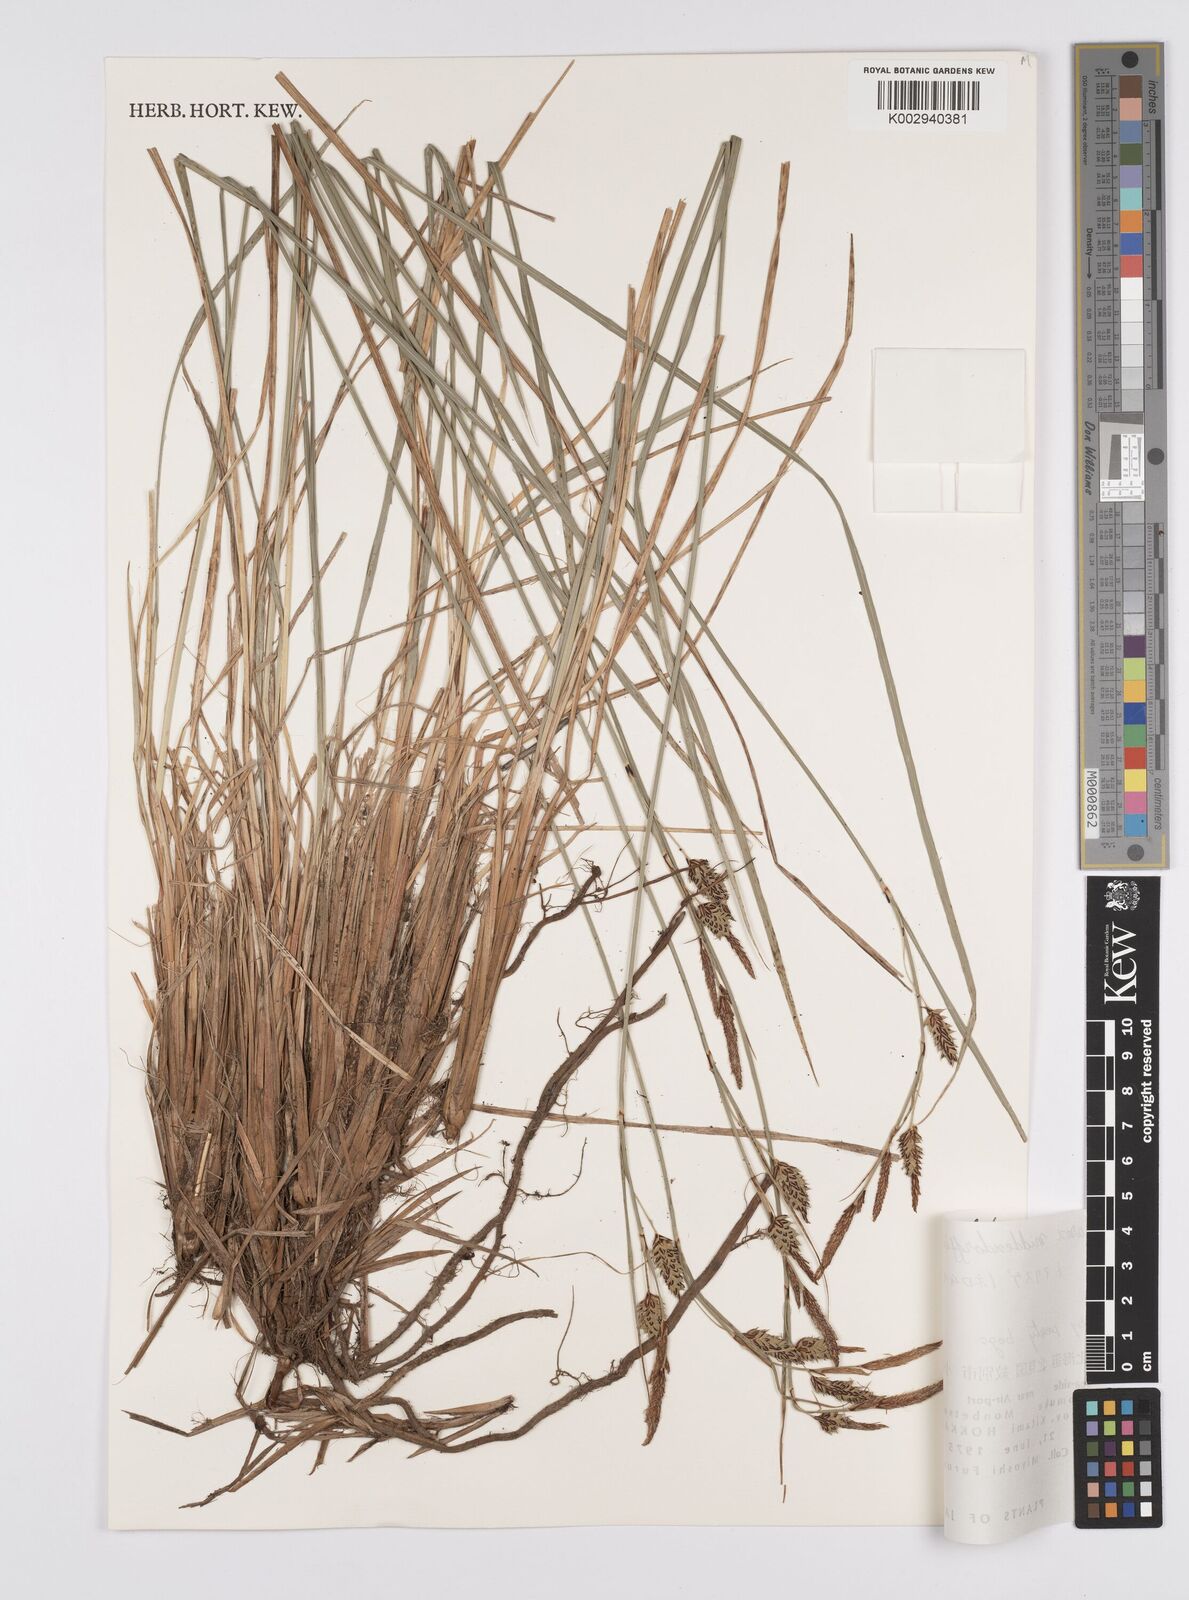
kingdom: Plantae
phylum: Tracheophyta
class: Liliopsida
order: Poales
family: Cyperaceae
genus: Carex
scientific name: Carex middendorffii
